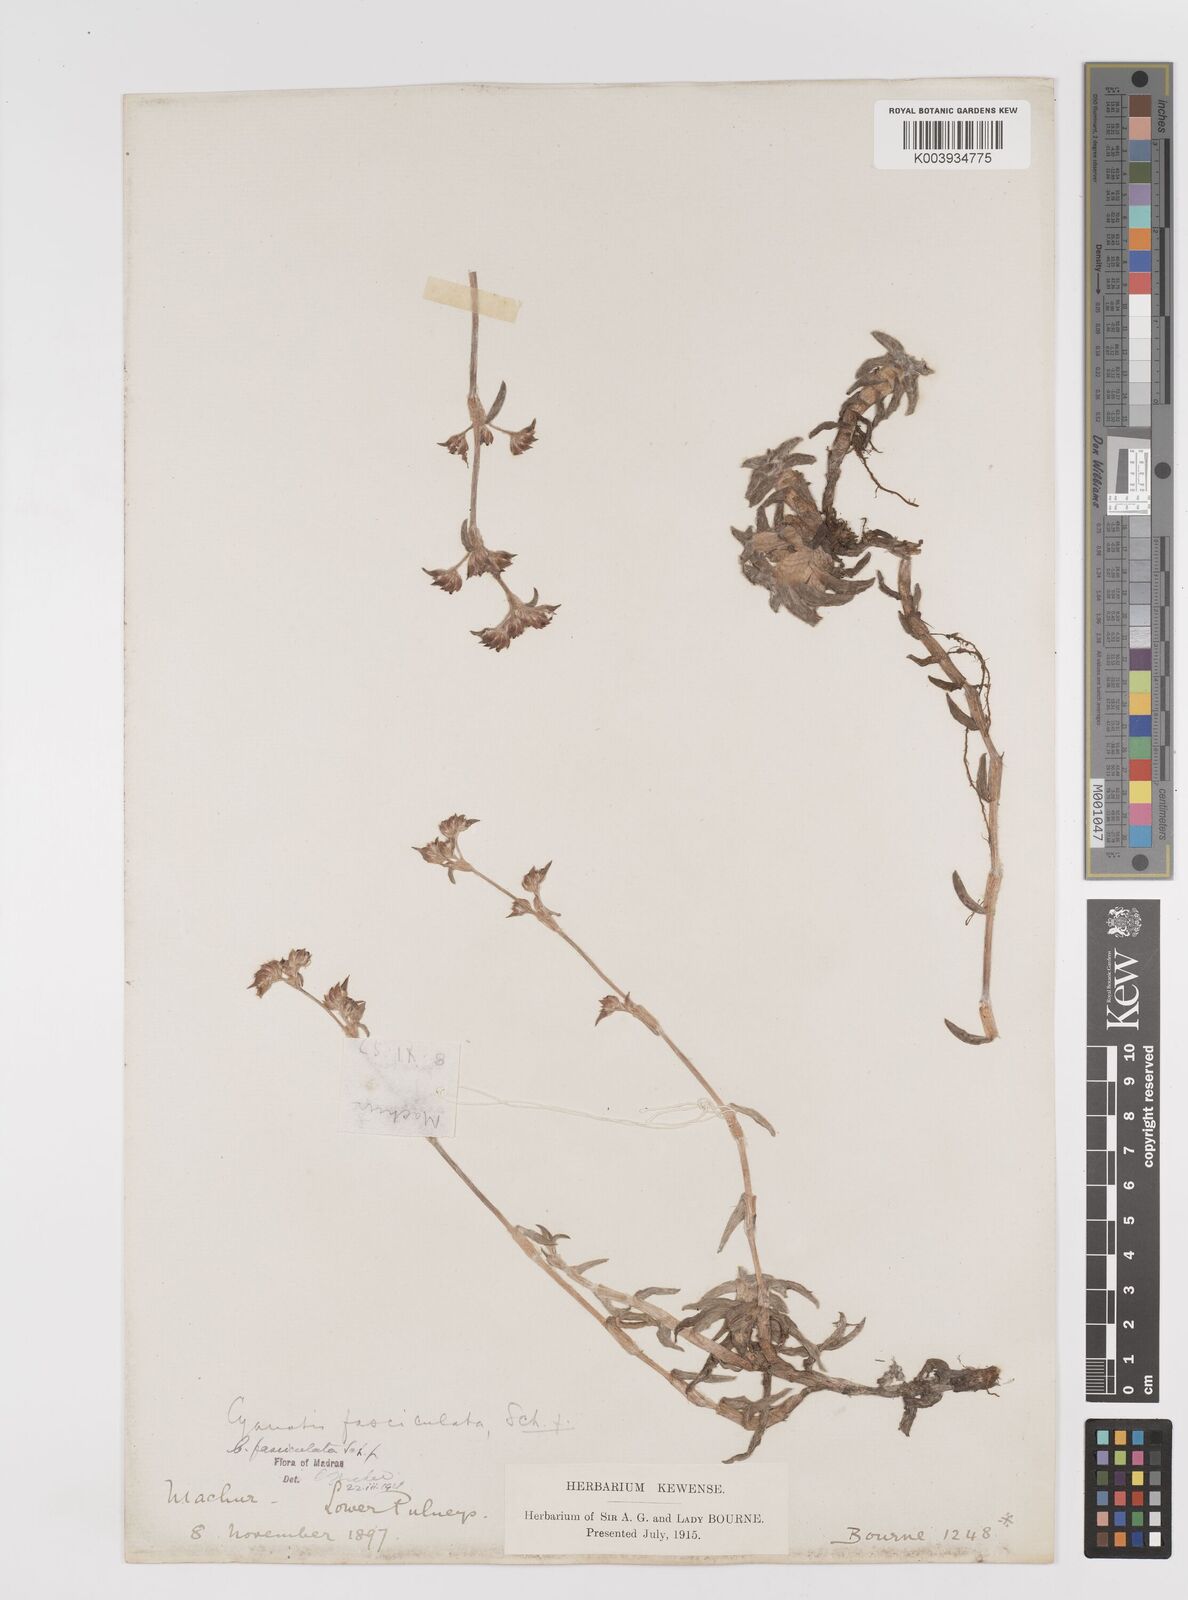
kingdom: Plantae
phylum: Tracheophyta
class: Liliopsida
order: Commelinales
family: Commelinaceae
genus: Cyanotis
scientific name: Cyanotis fasciculata
